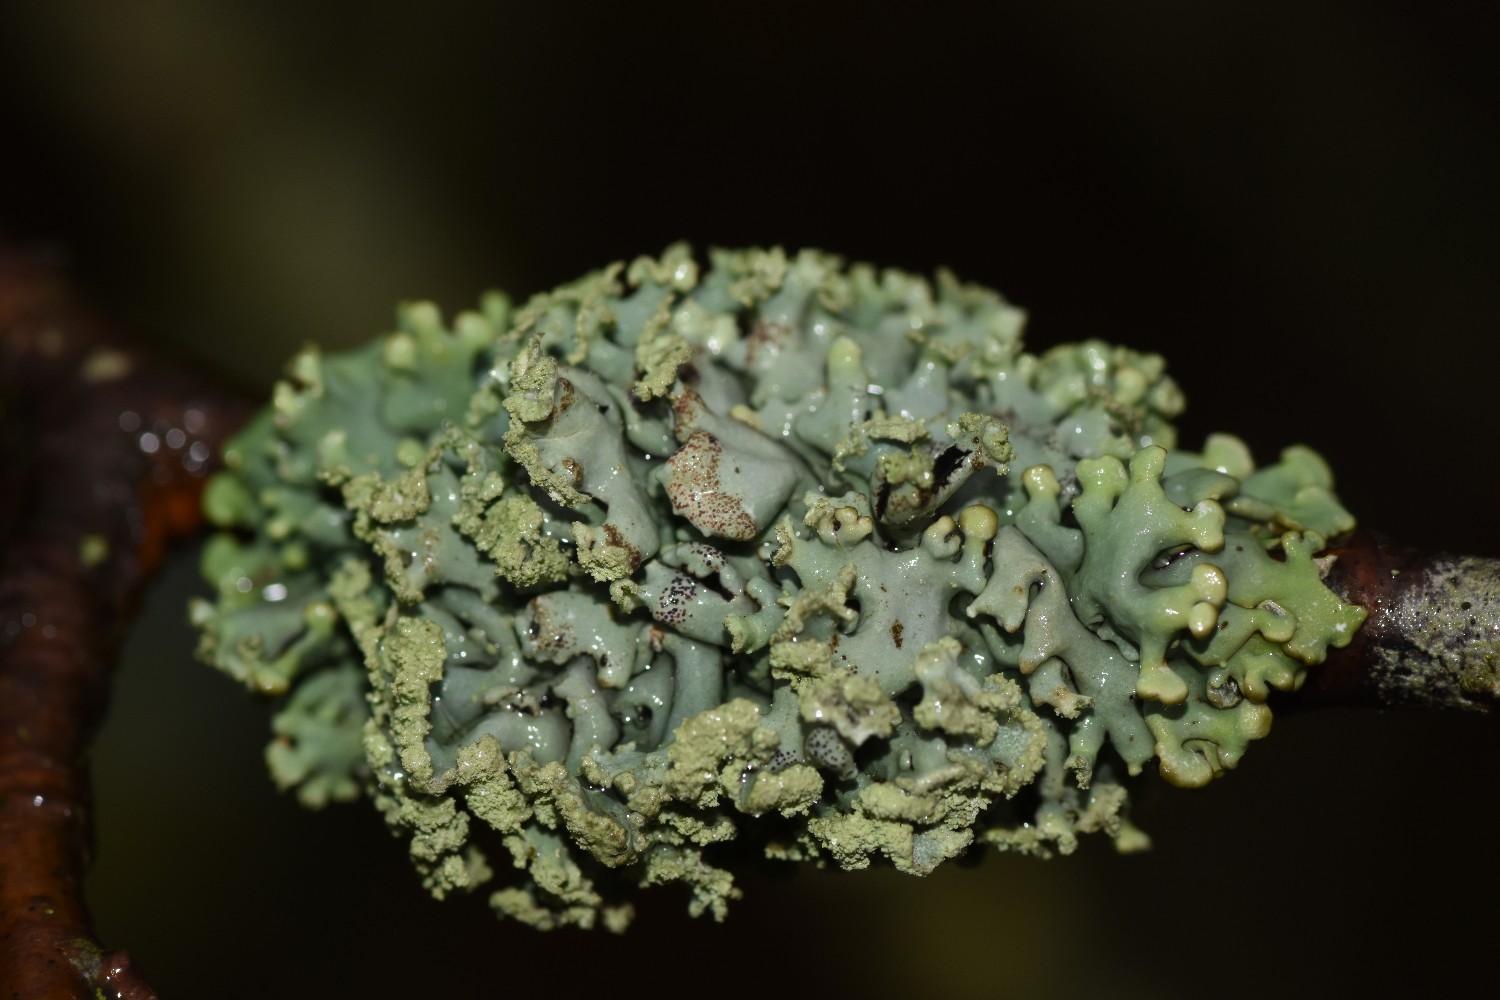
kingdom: Fungi
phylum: Ascomycota
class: Lecanoromycetes
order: Lecanorales
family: Parmeliaceae
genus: Hypogymnia
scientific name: Hypogymnia physodes
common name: almindelig kvistlav
